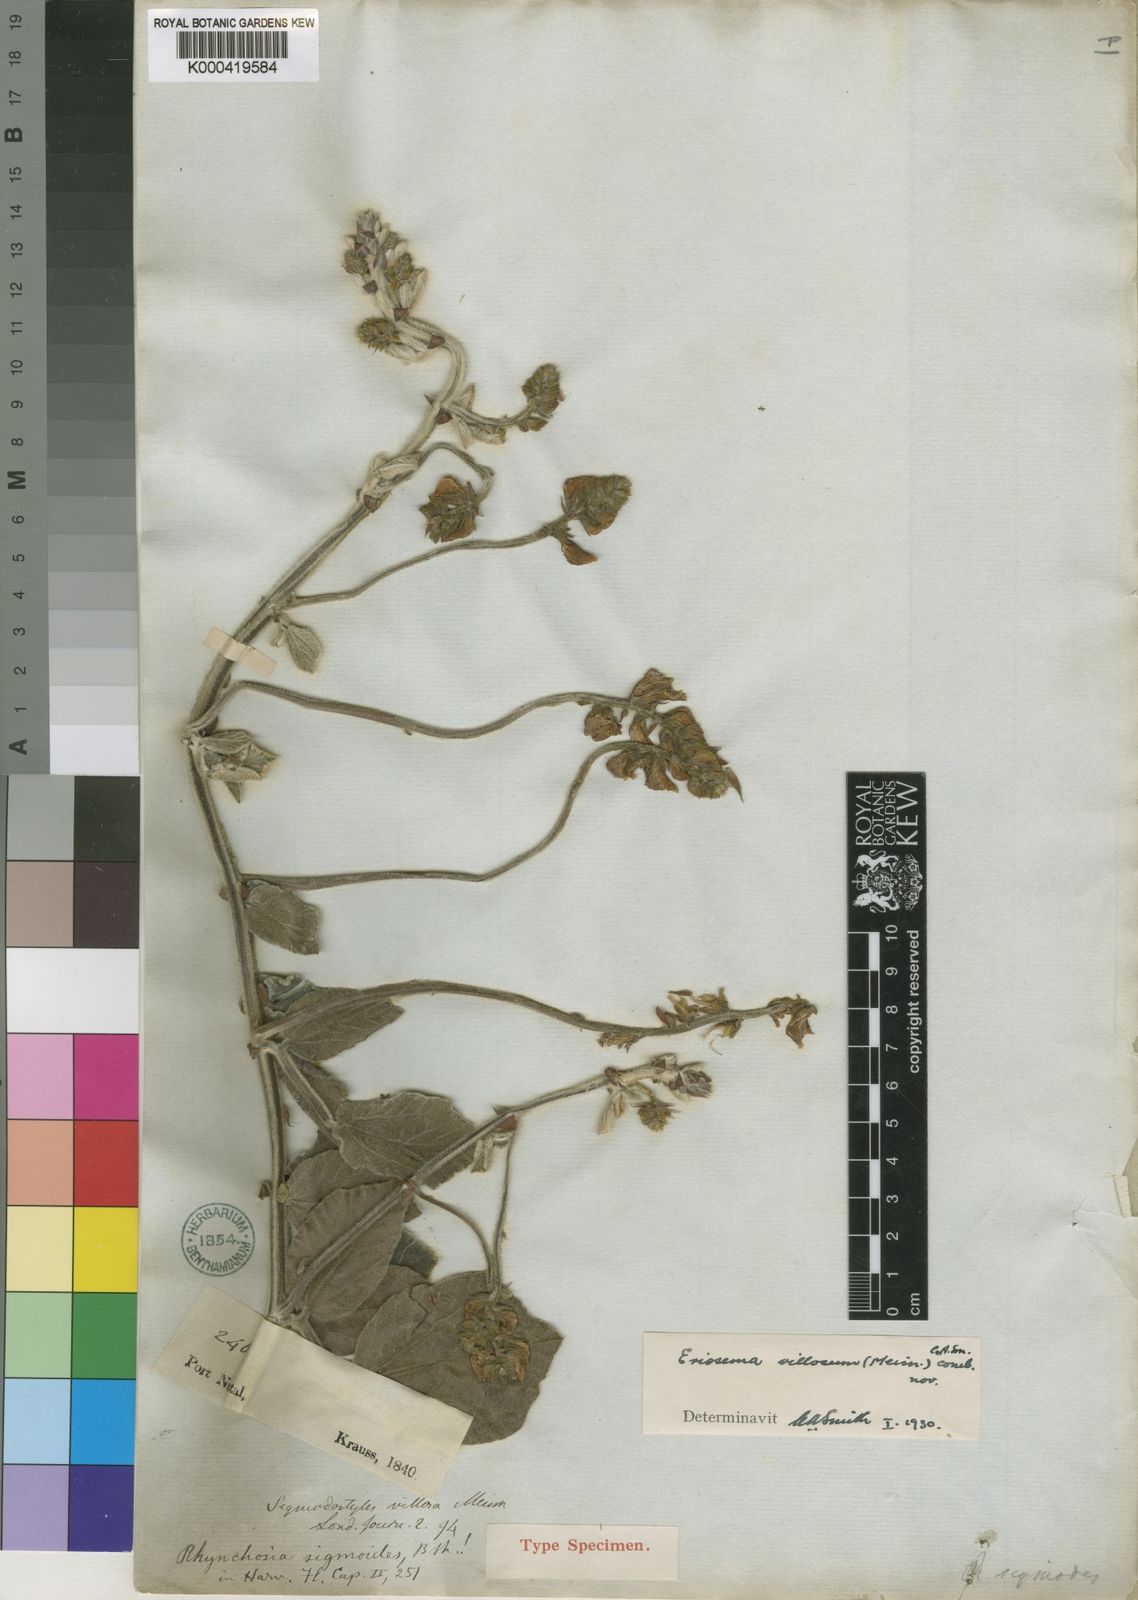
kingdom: Plantae
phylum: Tracheophyta
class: Magnoliopsida
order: Fabales
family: Fabaceae
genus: Rhynchosia
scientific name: Rhynchosia villosa
